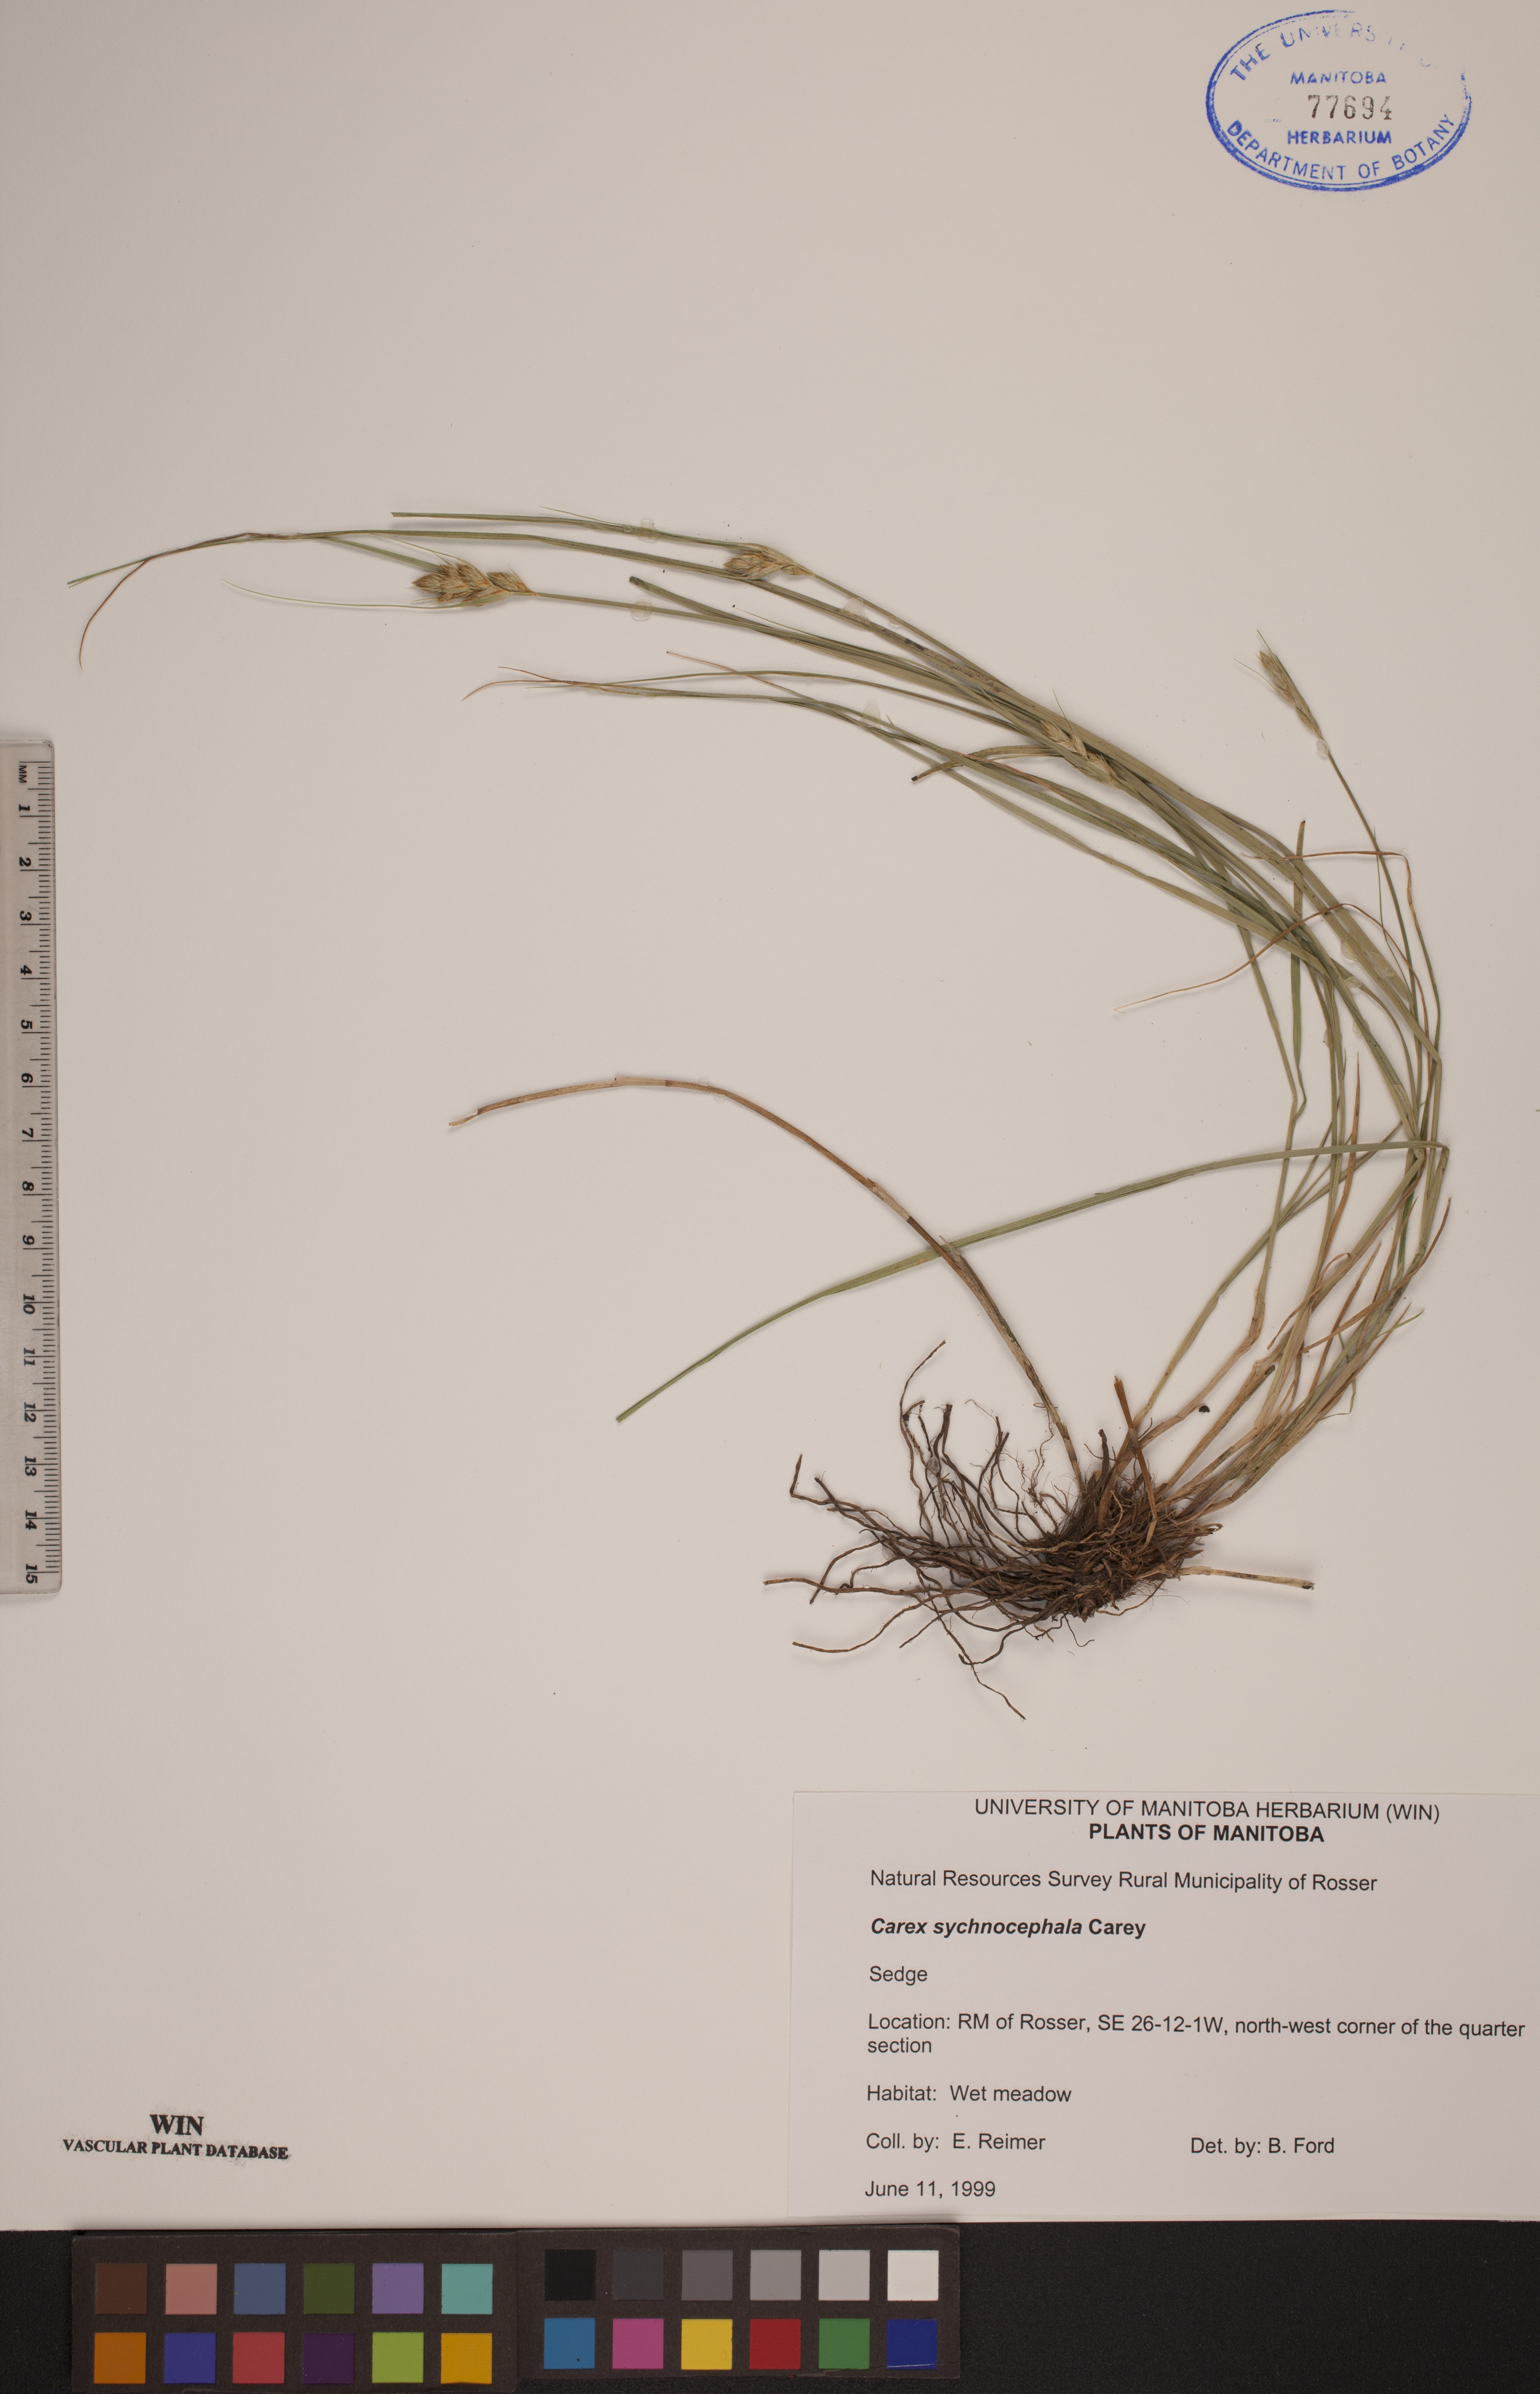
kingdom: Plantae
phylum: Tracheophyta
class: Liliopsida
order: Poales
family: Cyperaceae
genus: Carex
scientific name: Carex sychnocephala
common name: Dense long-beaked sedge
